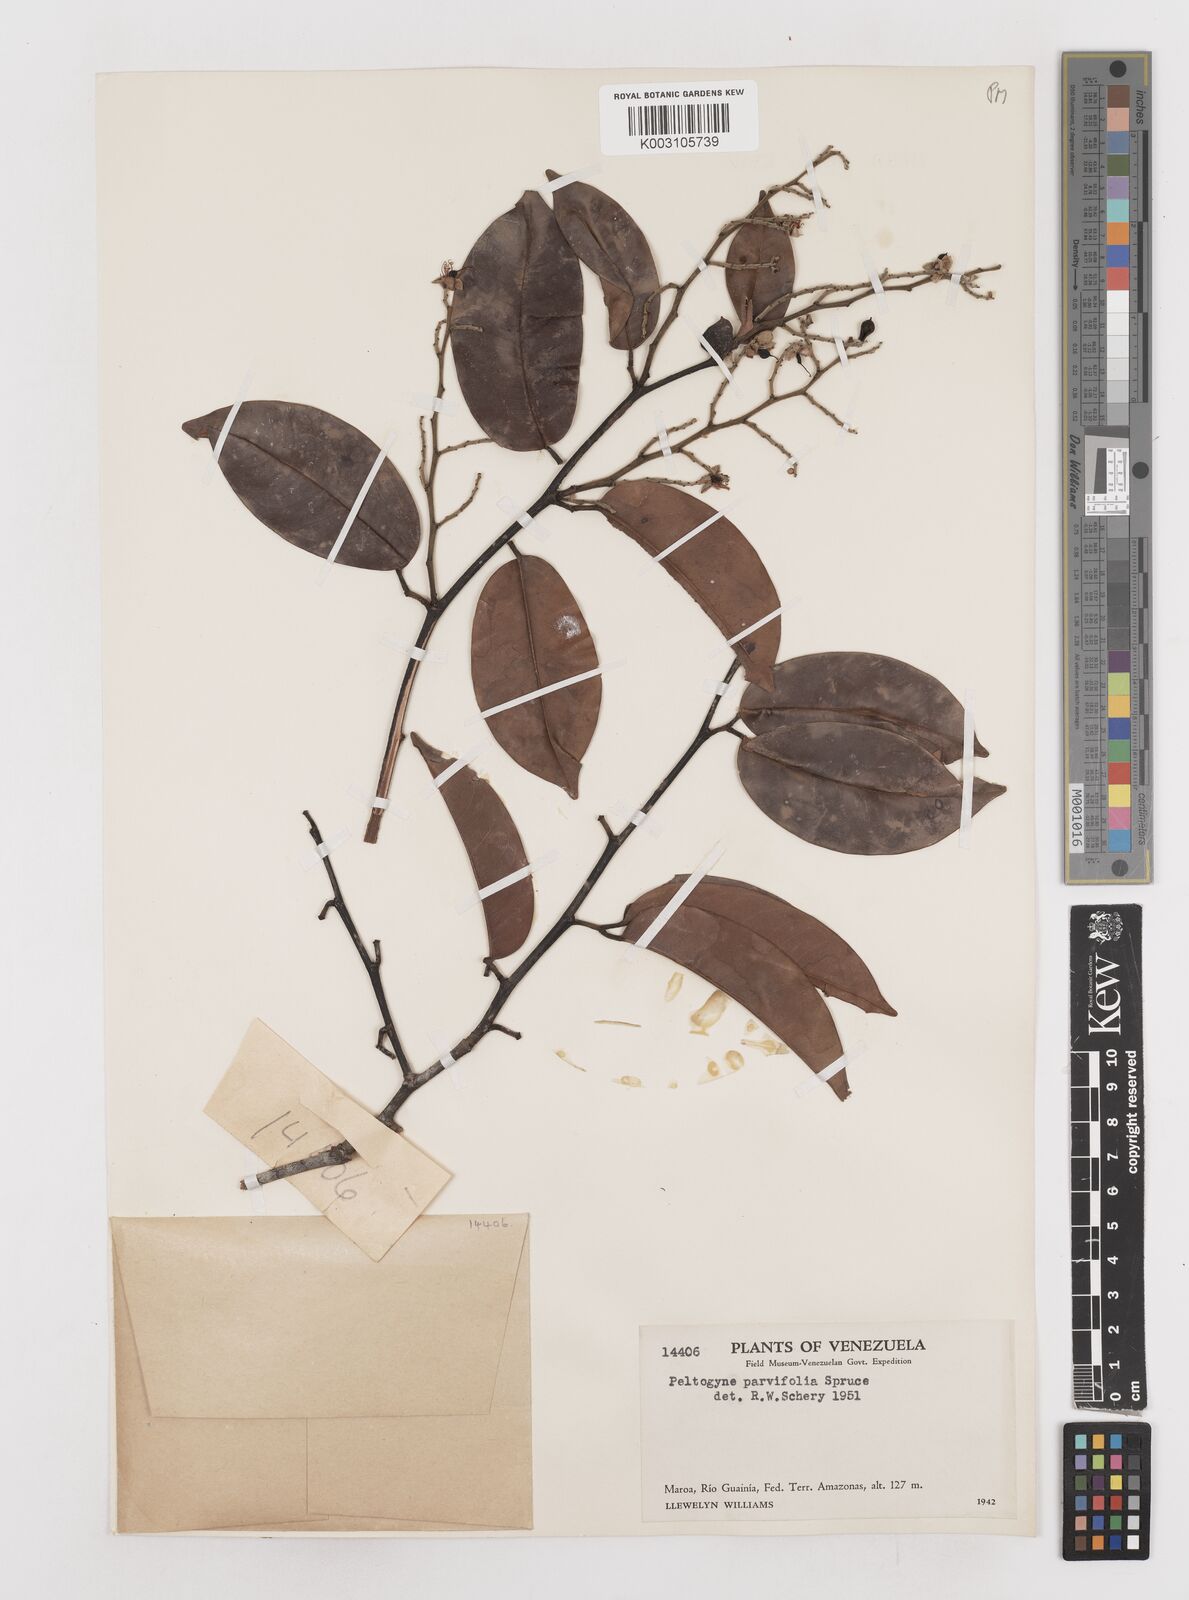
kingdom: Plantae
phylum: Tracheophyta
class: Magnoliopsida
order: Fabales
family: Fabaceae
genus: Peltogyne
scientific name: Peltogyne parvifolia
